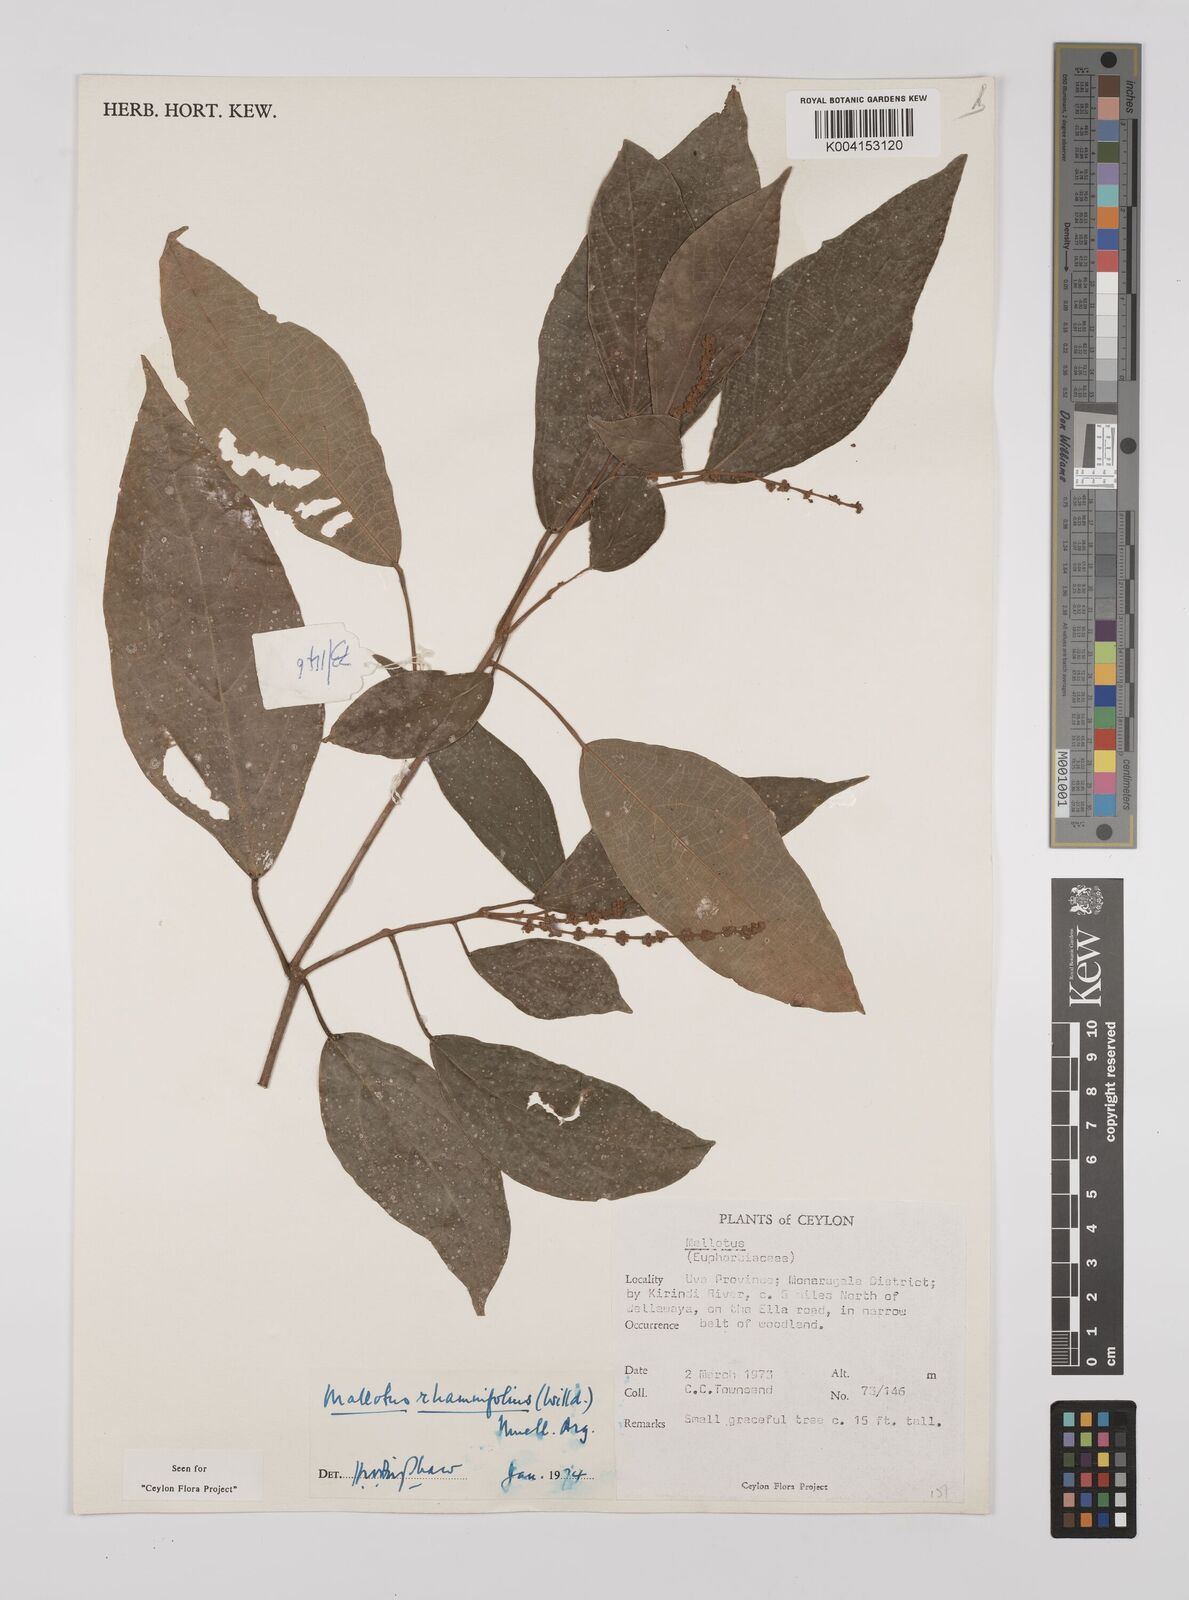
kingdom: Plantae
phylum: Tracheophyta
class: Magnoliopsida
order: Malpighiales
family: Euphorbiaceae
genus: Mallotus
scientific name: Mallotus rhamnifolius
